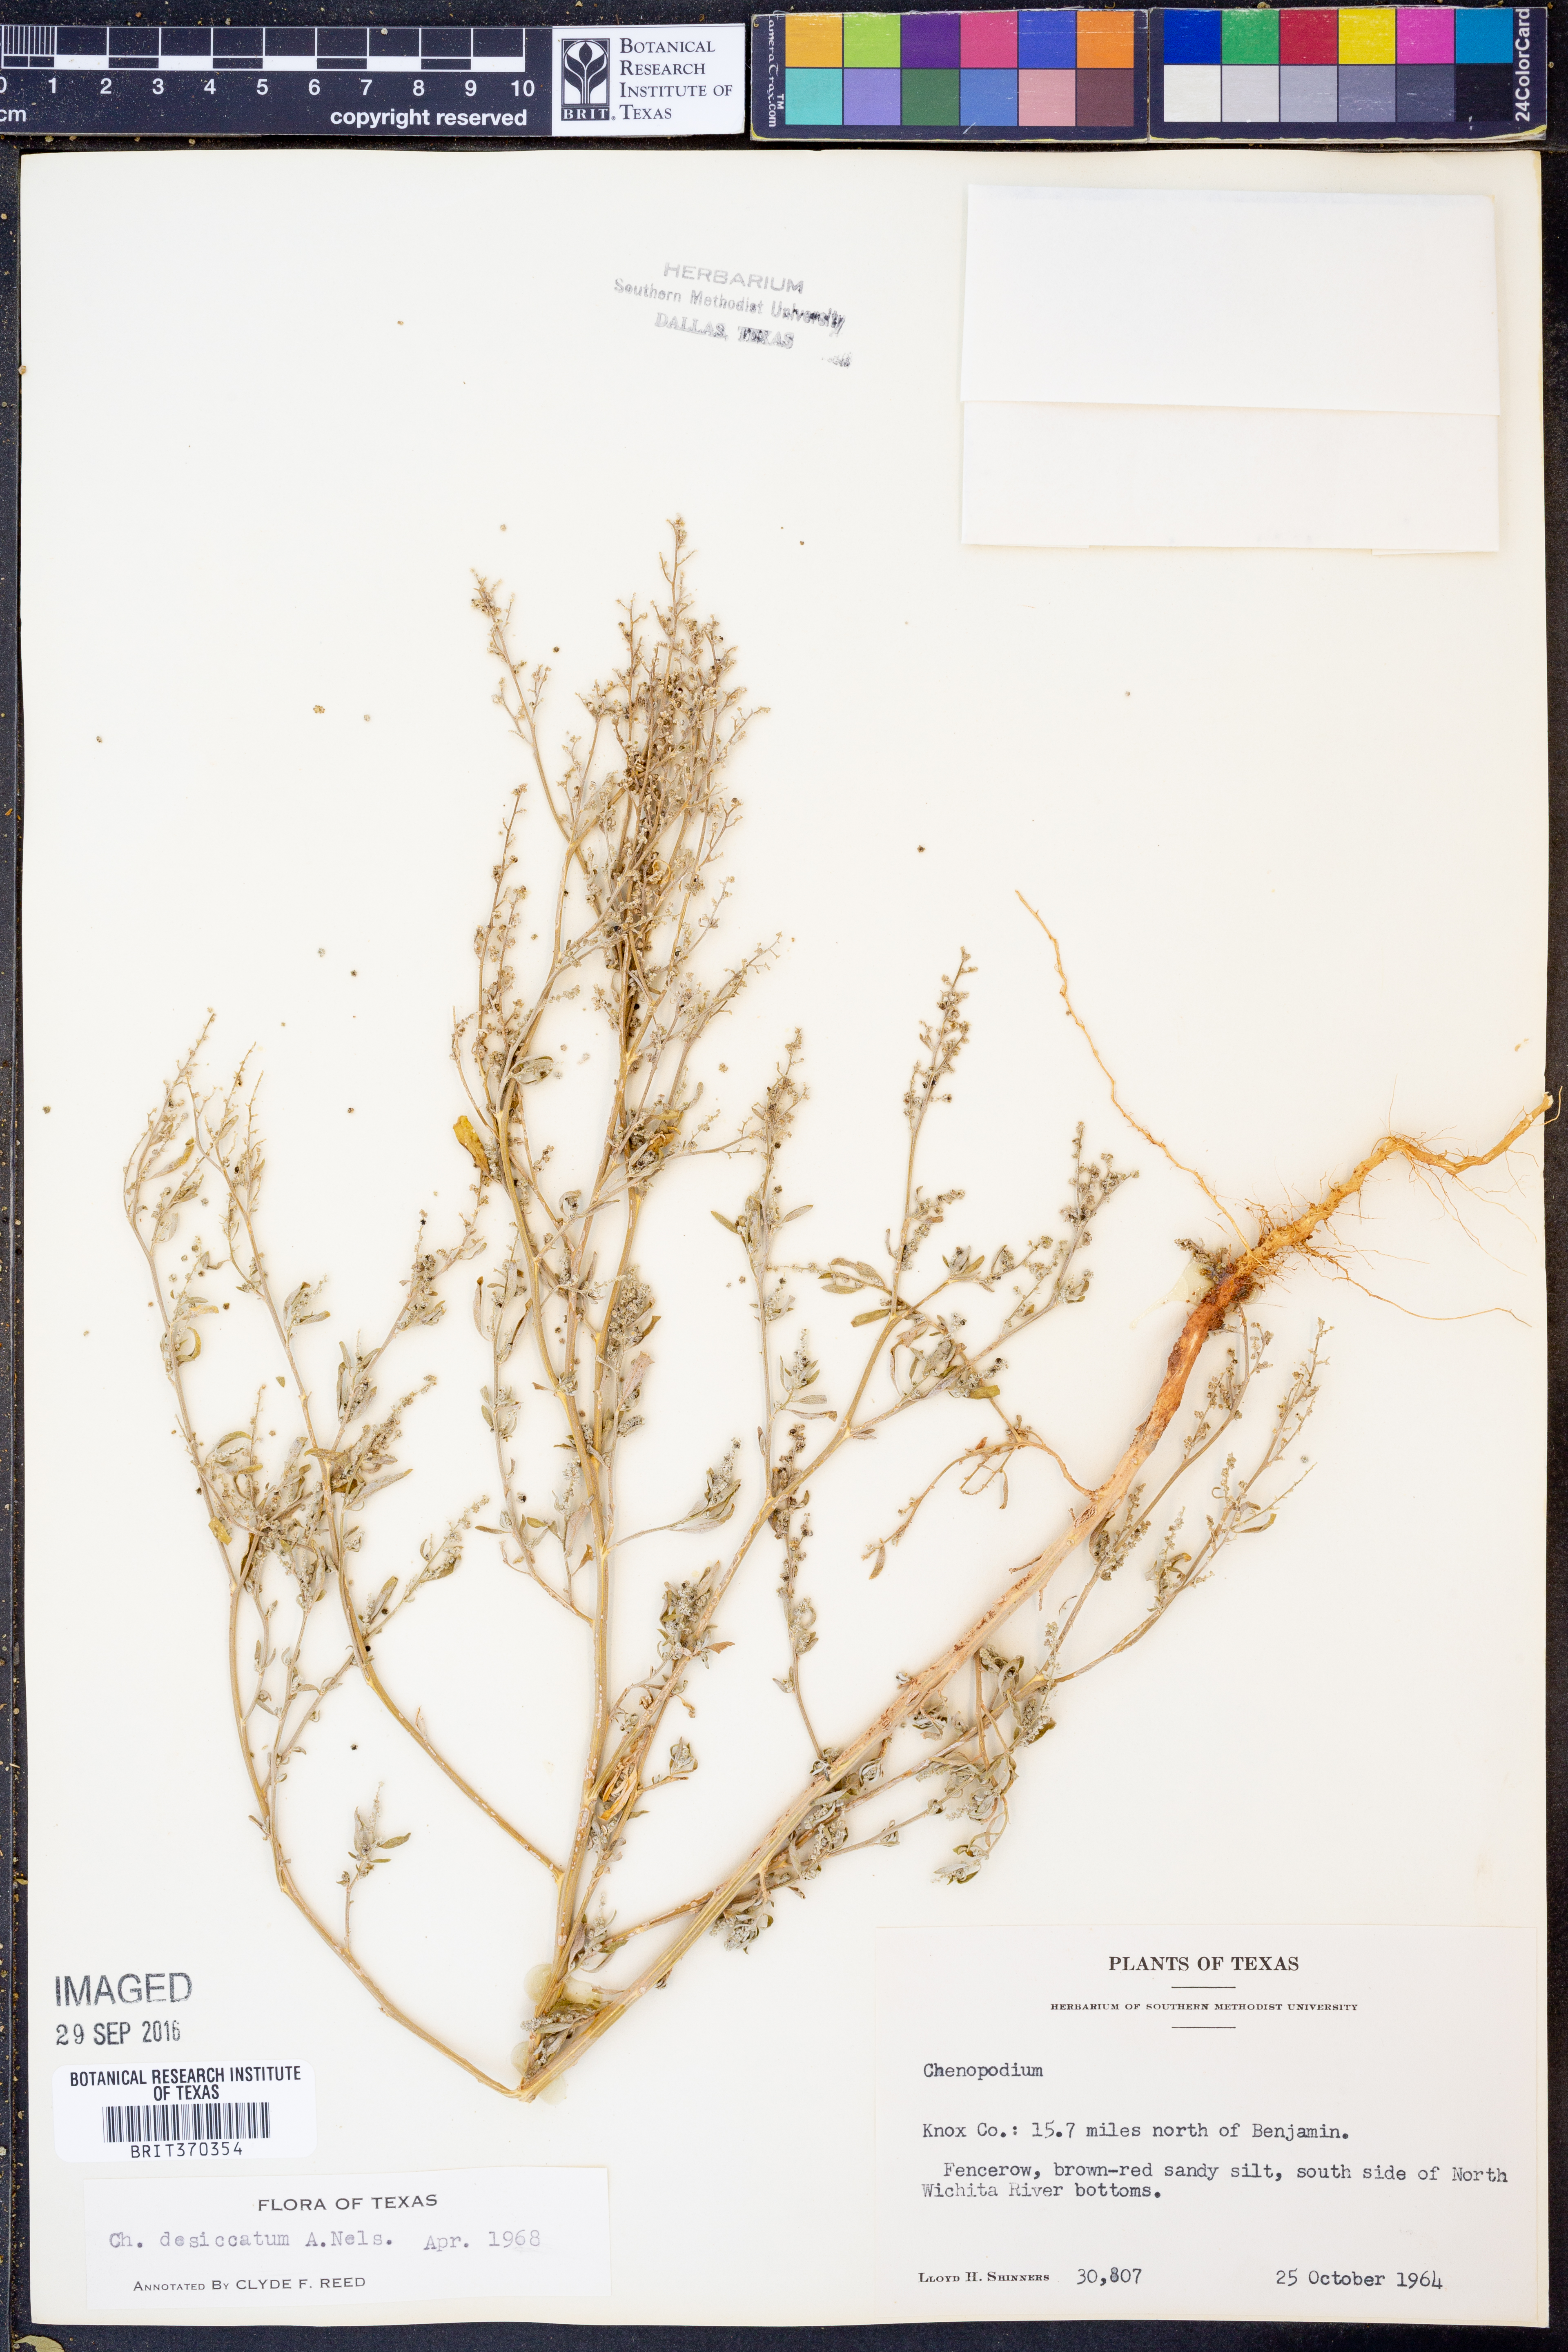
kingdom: Plantae
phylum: Tracheophyta
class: Magnoliopsida
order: Caryophyllales
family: Amaranthaceae
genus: Chenopodium
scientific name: Chenopodium desiccatum
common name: Slimleaf goosefoot
